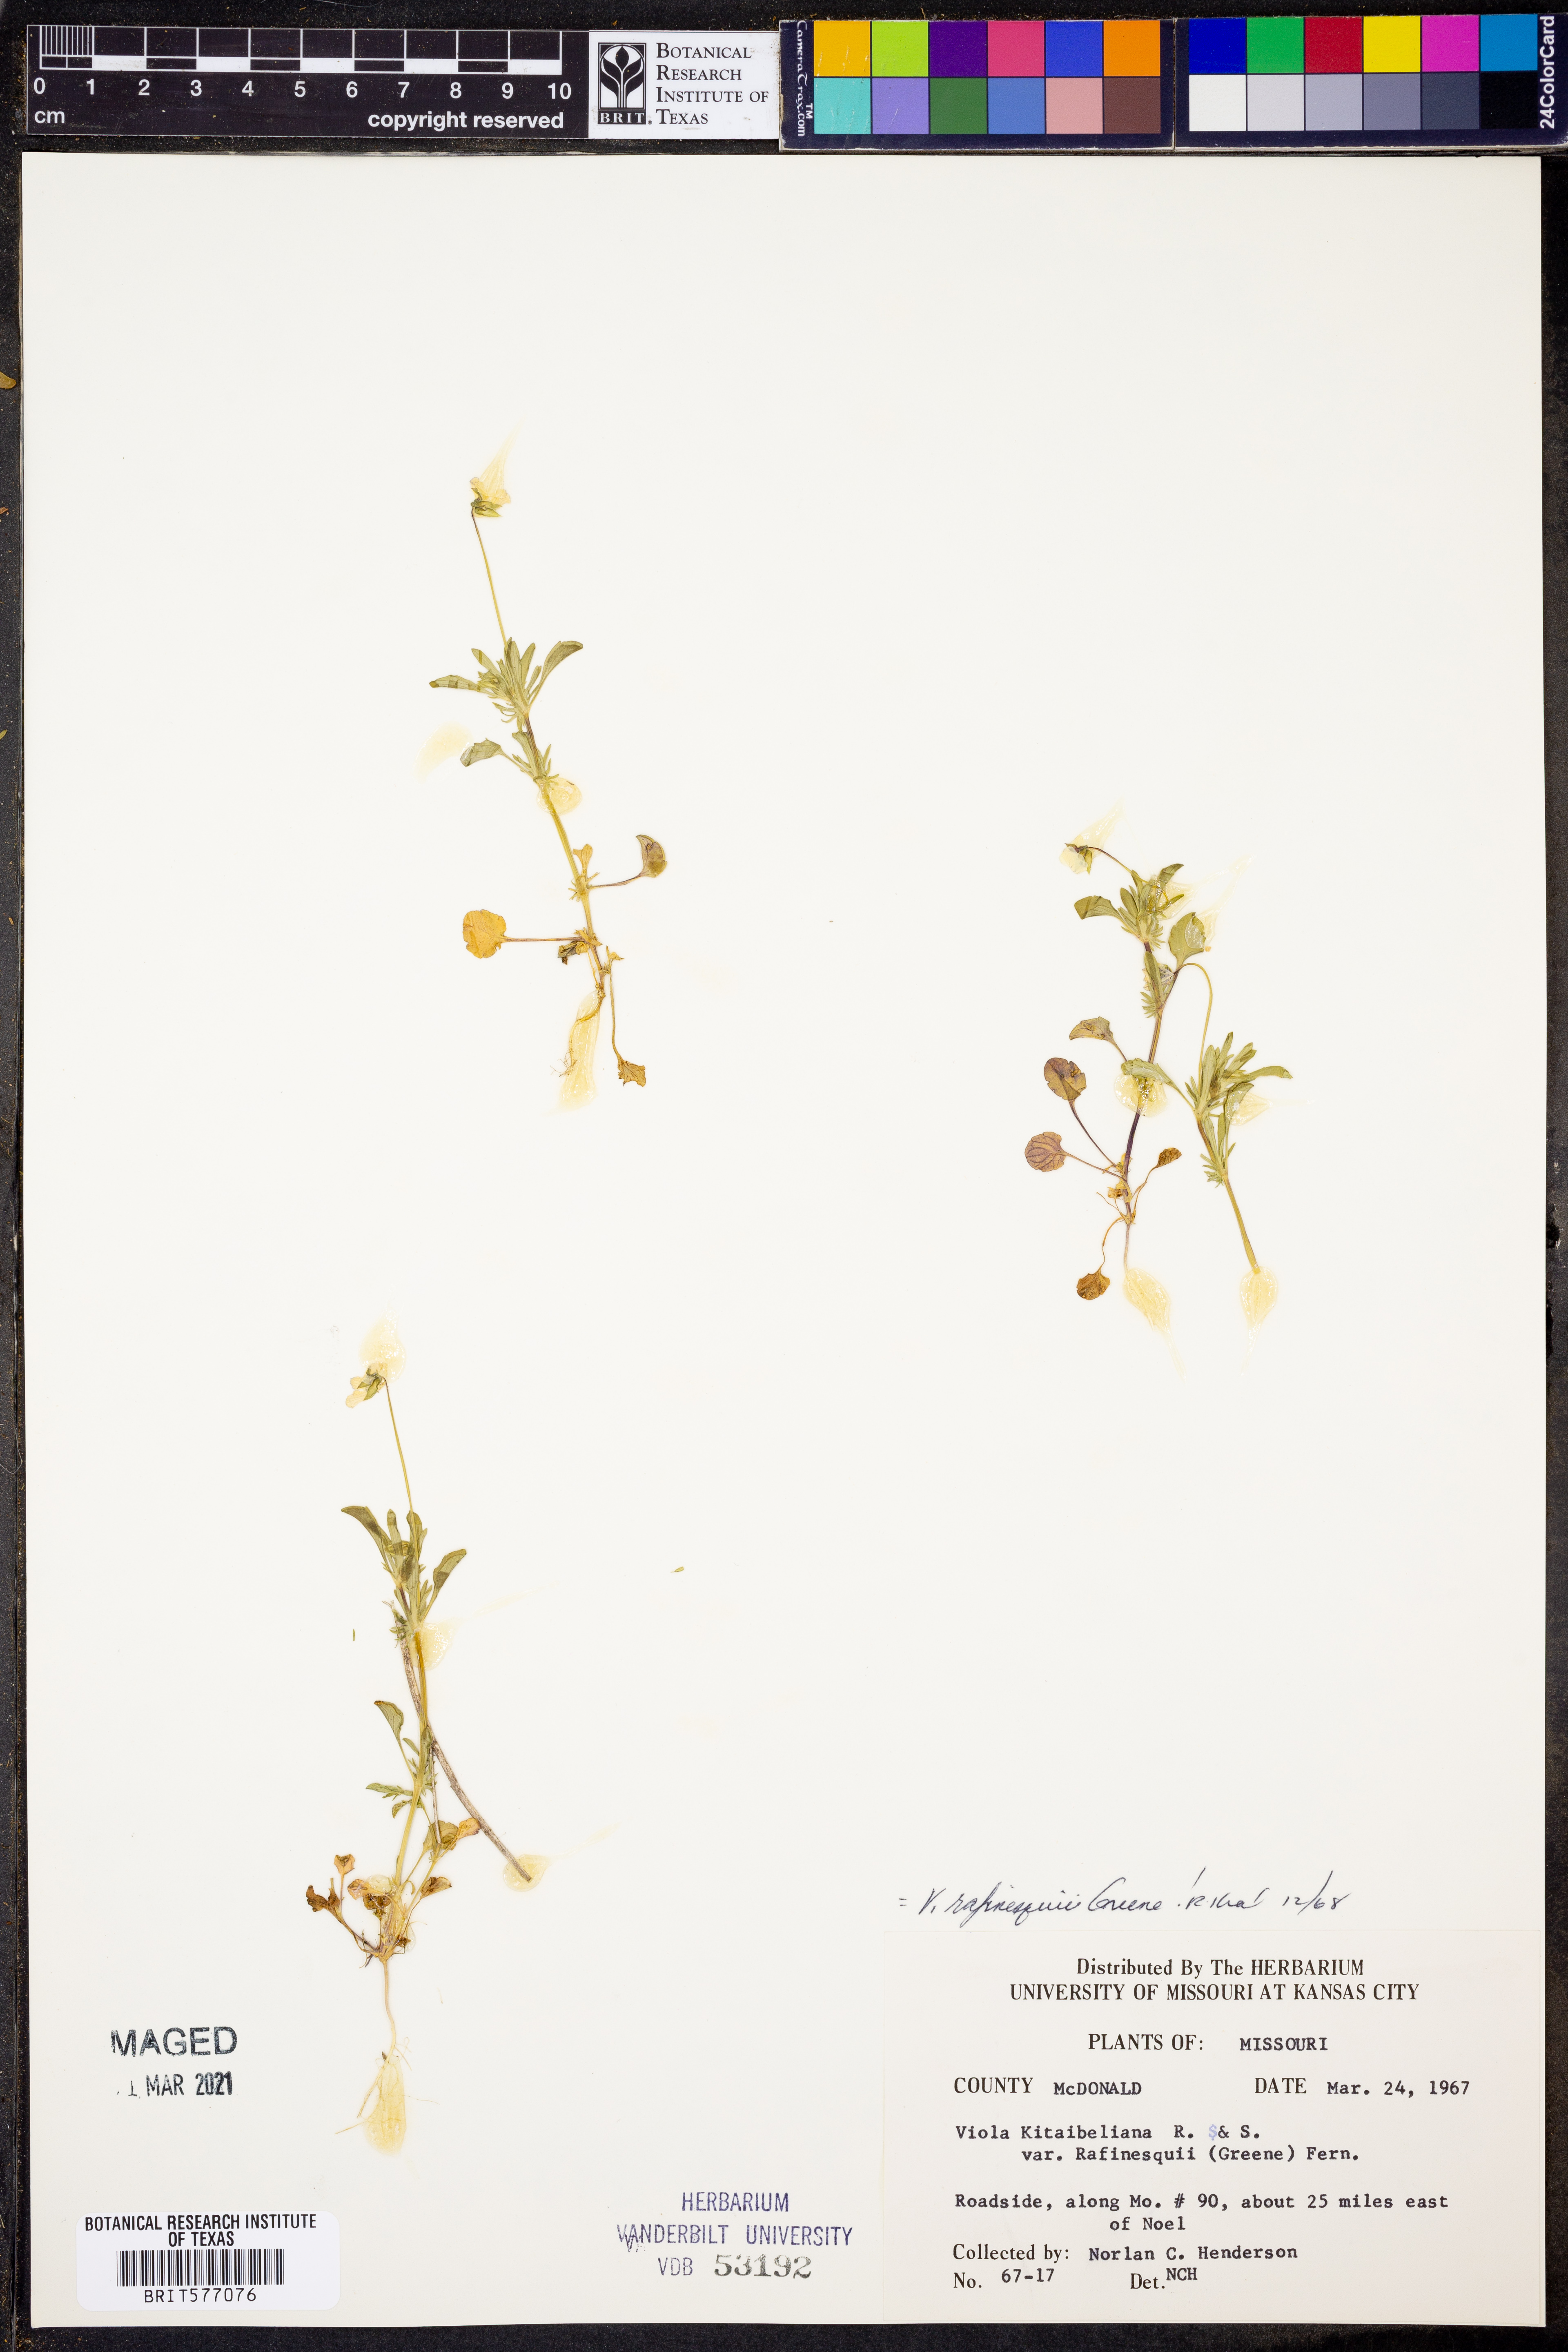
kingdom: Plantae
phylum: Tracheophyta
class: Magnoliopsida
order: Malpighiales
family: Violaceae
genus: Viola
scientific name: Viola rafinesquei
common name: American field pansy
